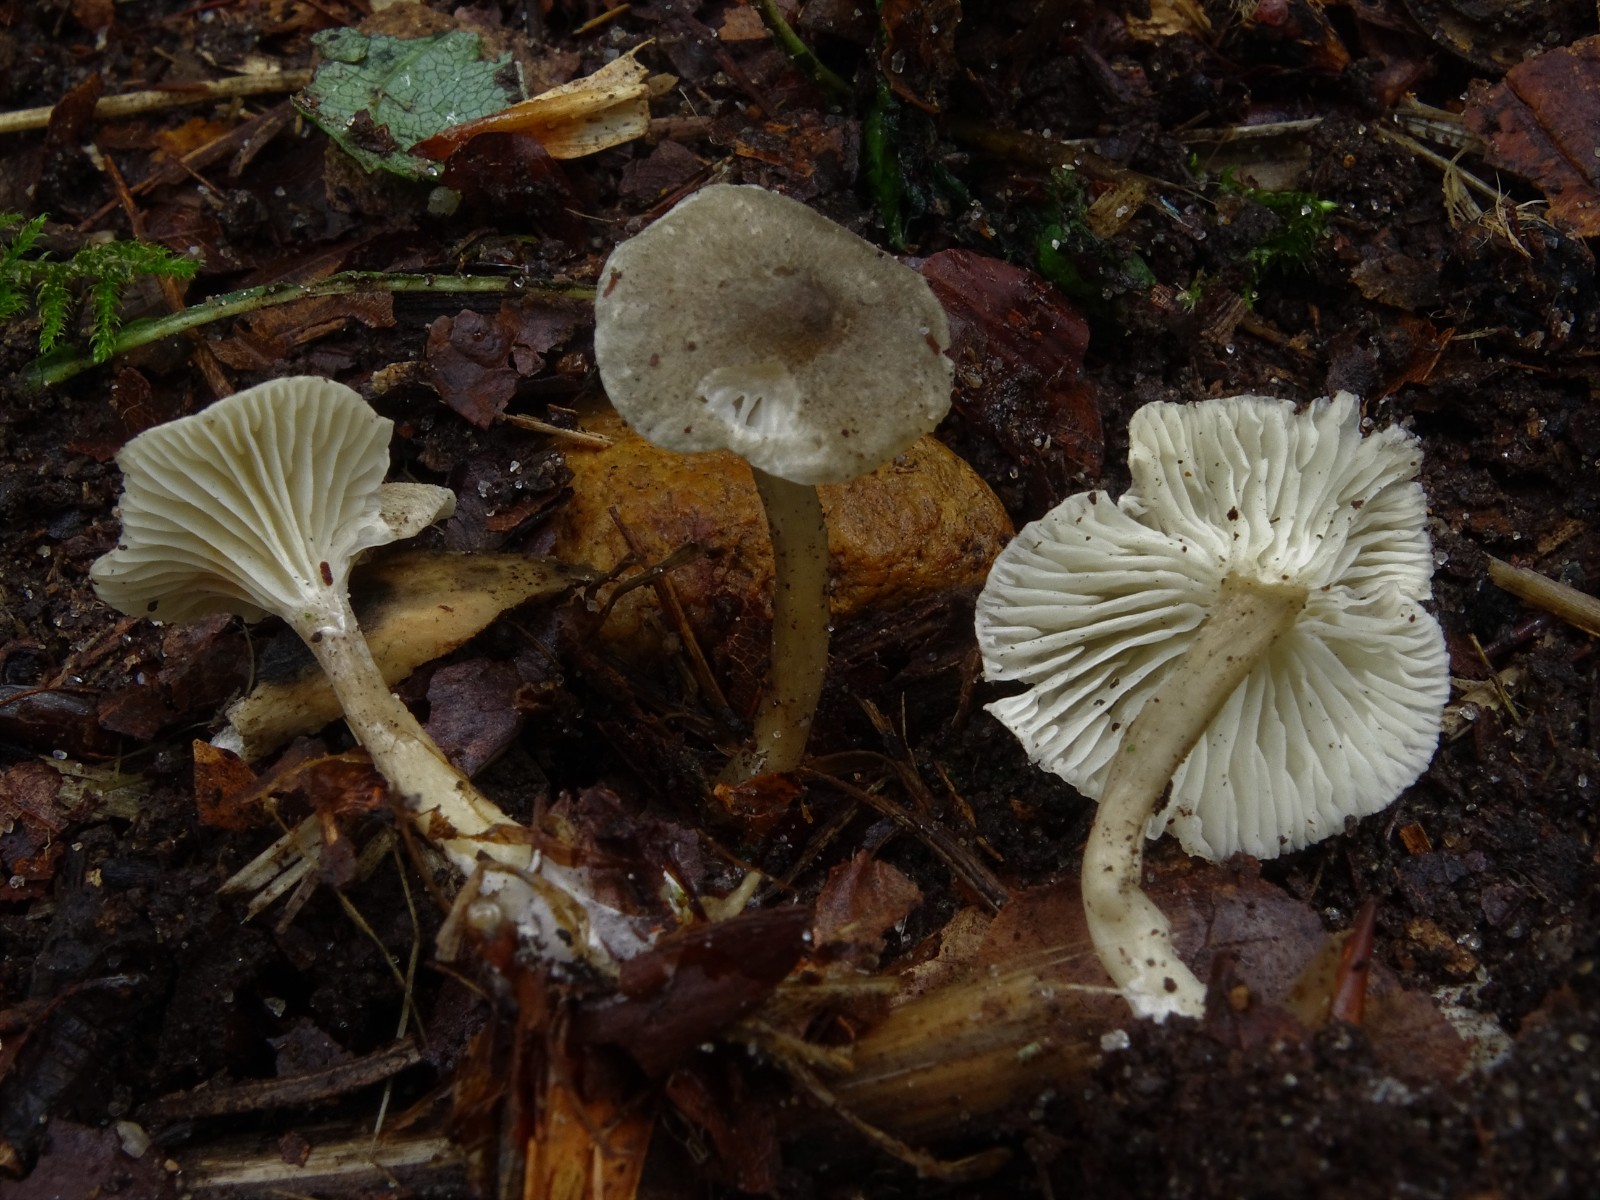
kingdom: Fungi
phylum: Basidiomycota
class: Agaricomycetes
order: Agaricales
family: Hygrophoraceae
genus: Spodocybe
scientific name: Spodocybe trulliformis
